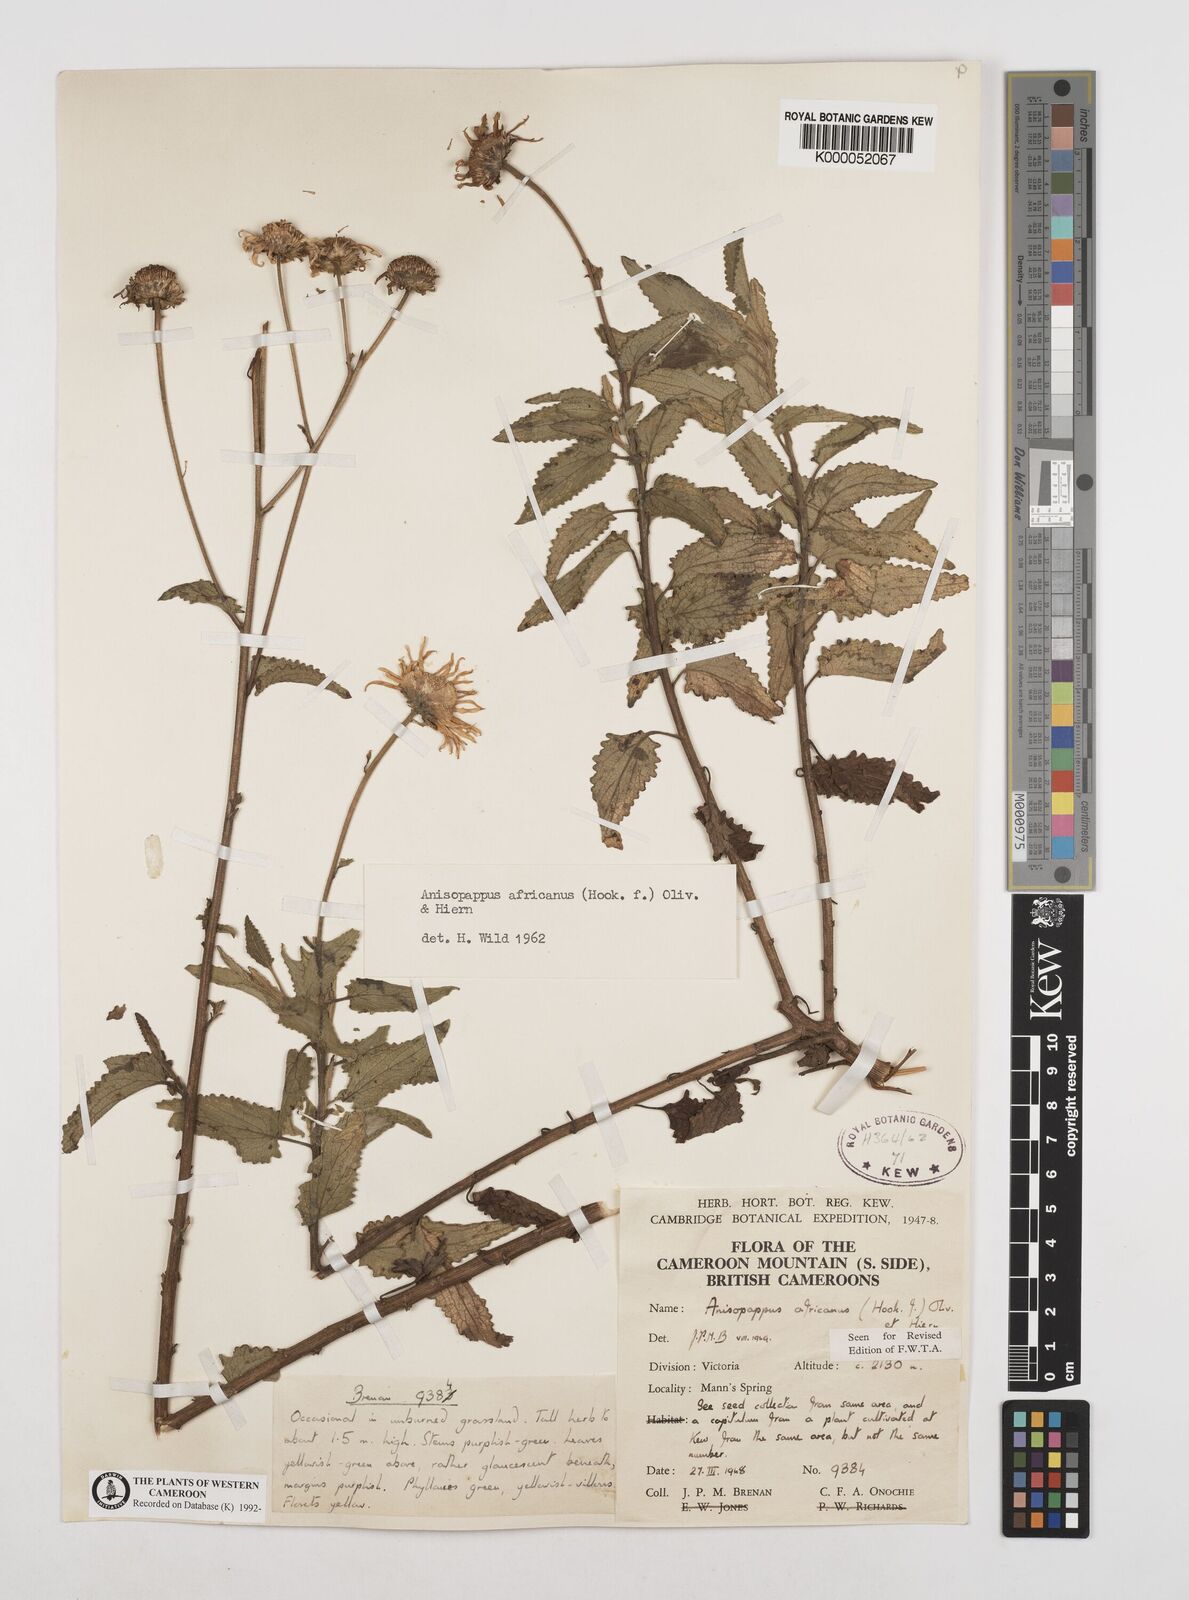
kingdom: Plantae
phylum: Tracheophyta
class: Magnoliopsida
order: Asterales
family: Asteraceae
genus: Anisopappus
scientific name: Anisopappus africanus
